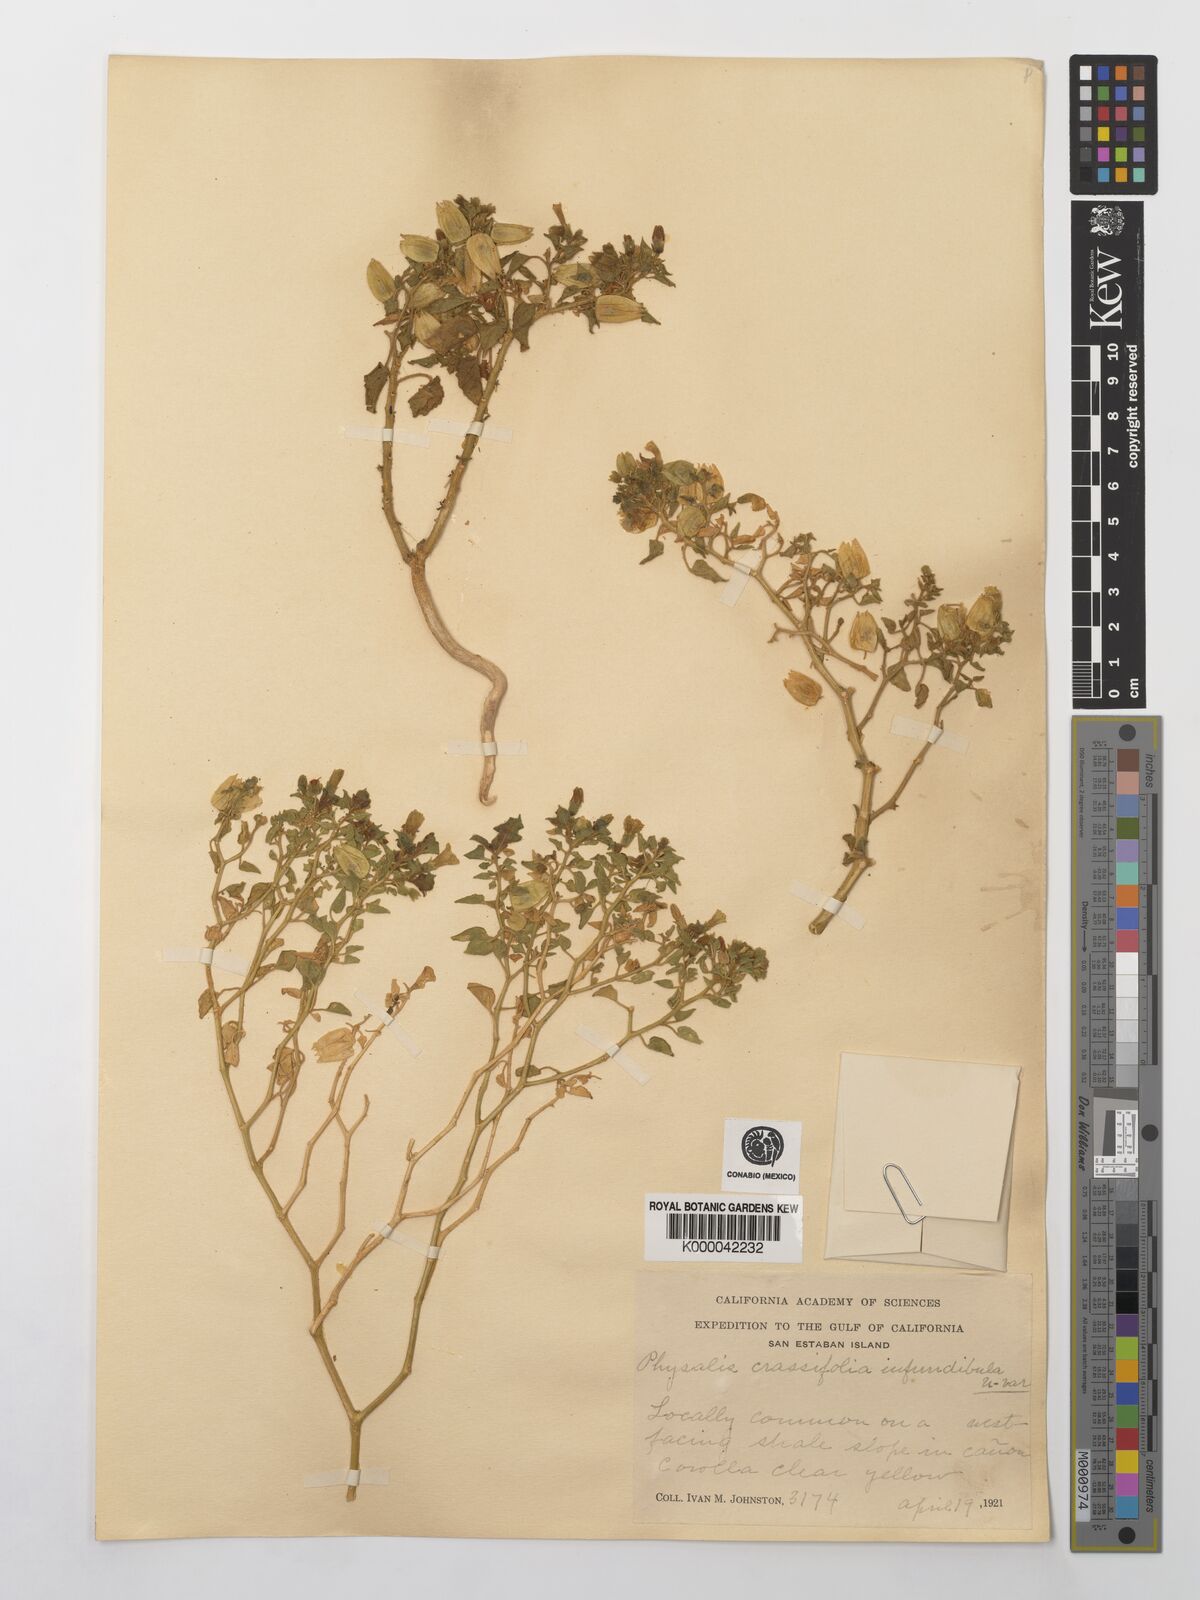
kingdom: Plantae
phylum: Tracheophyta
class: Magnoliopsida
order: Solanales
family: Solanaceae
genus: Physalis
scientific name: Physalis crassifolia
